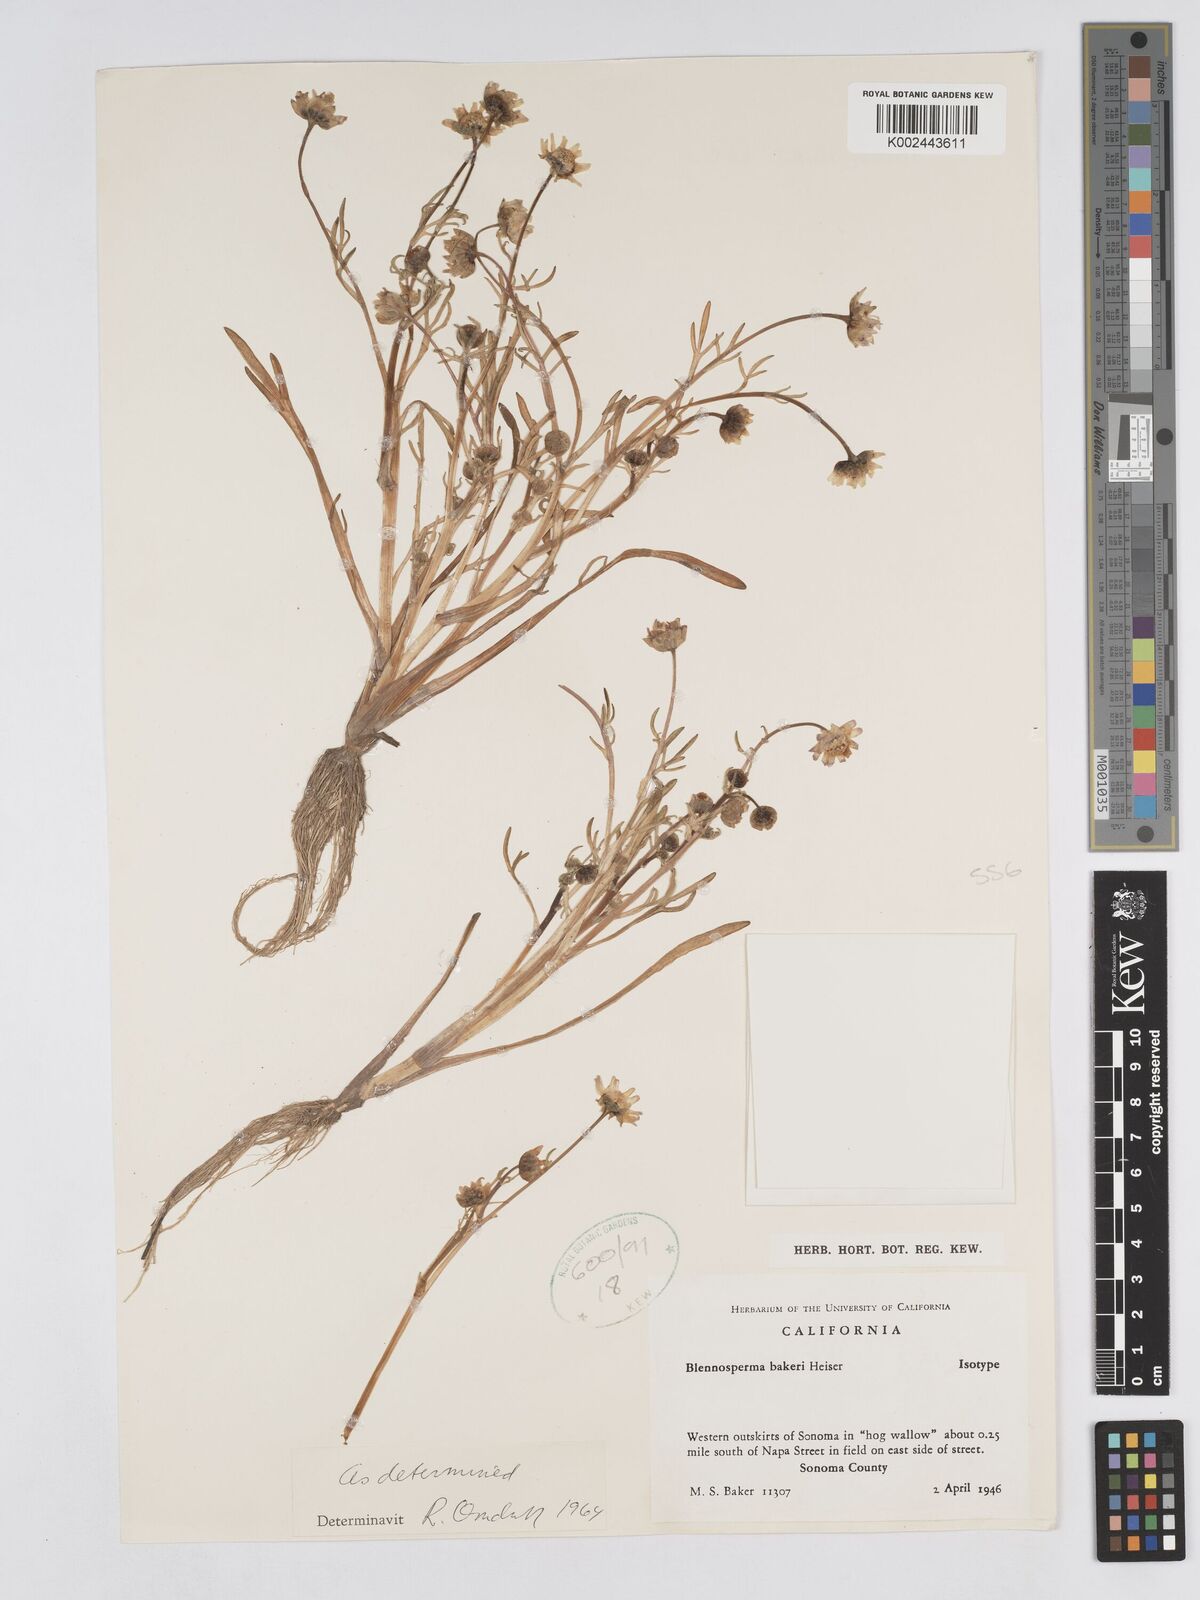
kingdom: Plantae
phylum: Tracheophyta
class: Magnoliopsida
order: Asterales
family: Asteraceae
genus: Blennosperma
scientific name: Blennosperma bakeri
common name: Sonoma sunshine
